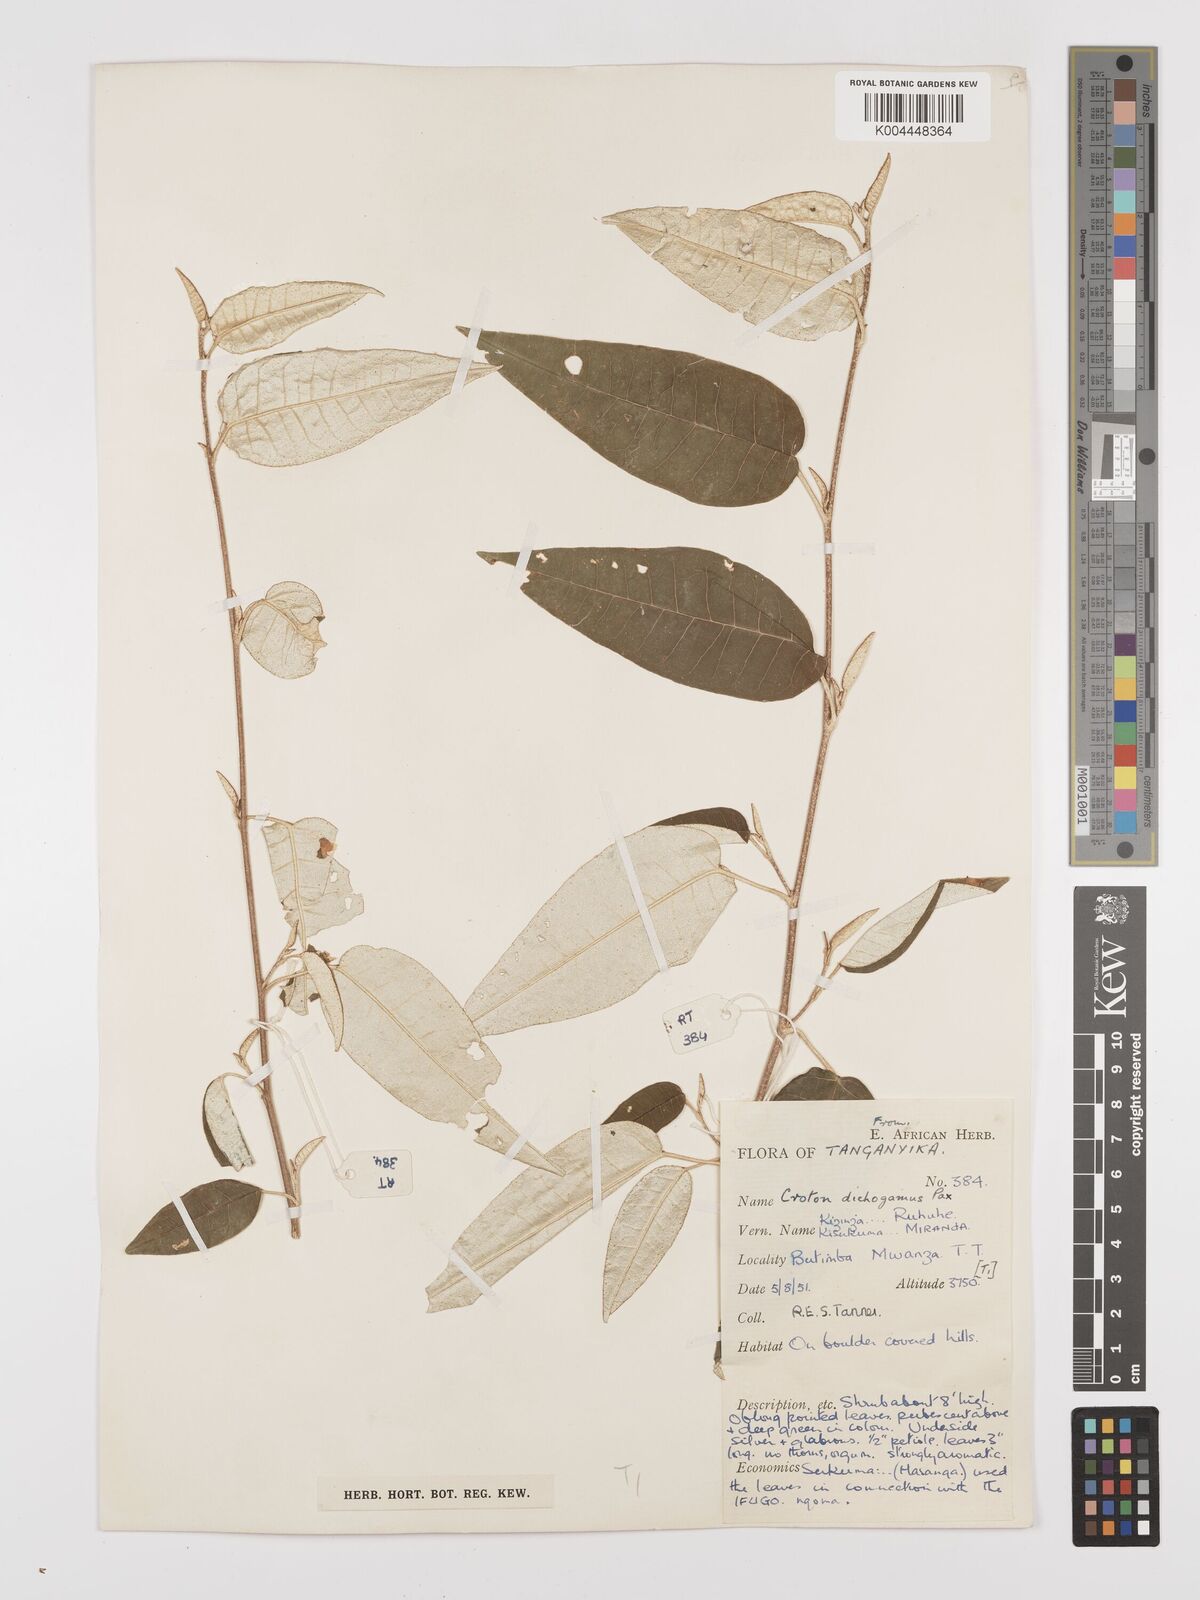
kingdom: Plantae
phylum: Tracheophyta
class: Magnoliopsida
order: Malpighiales
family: Euphorbiaceae
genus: Croton
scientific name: Croton dichogamus
